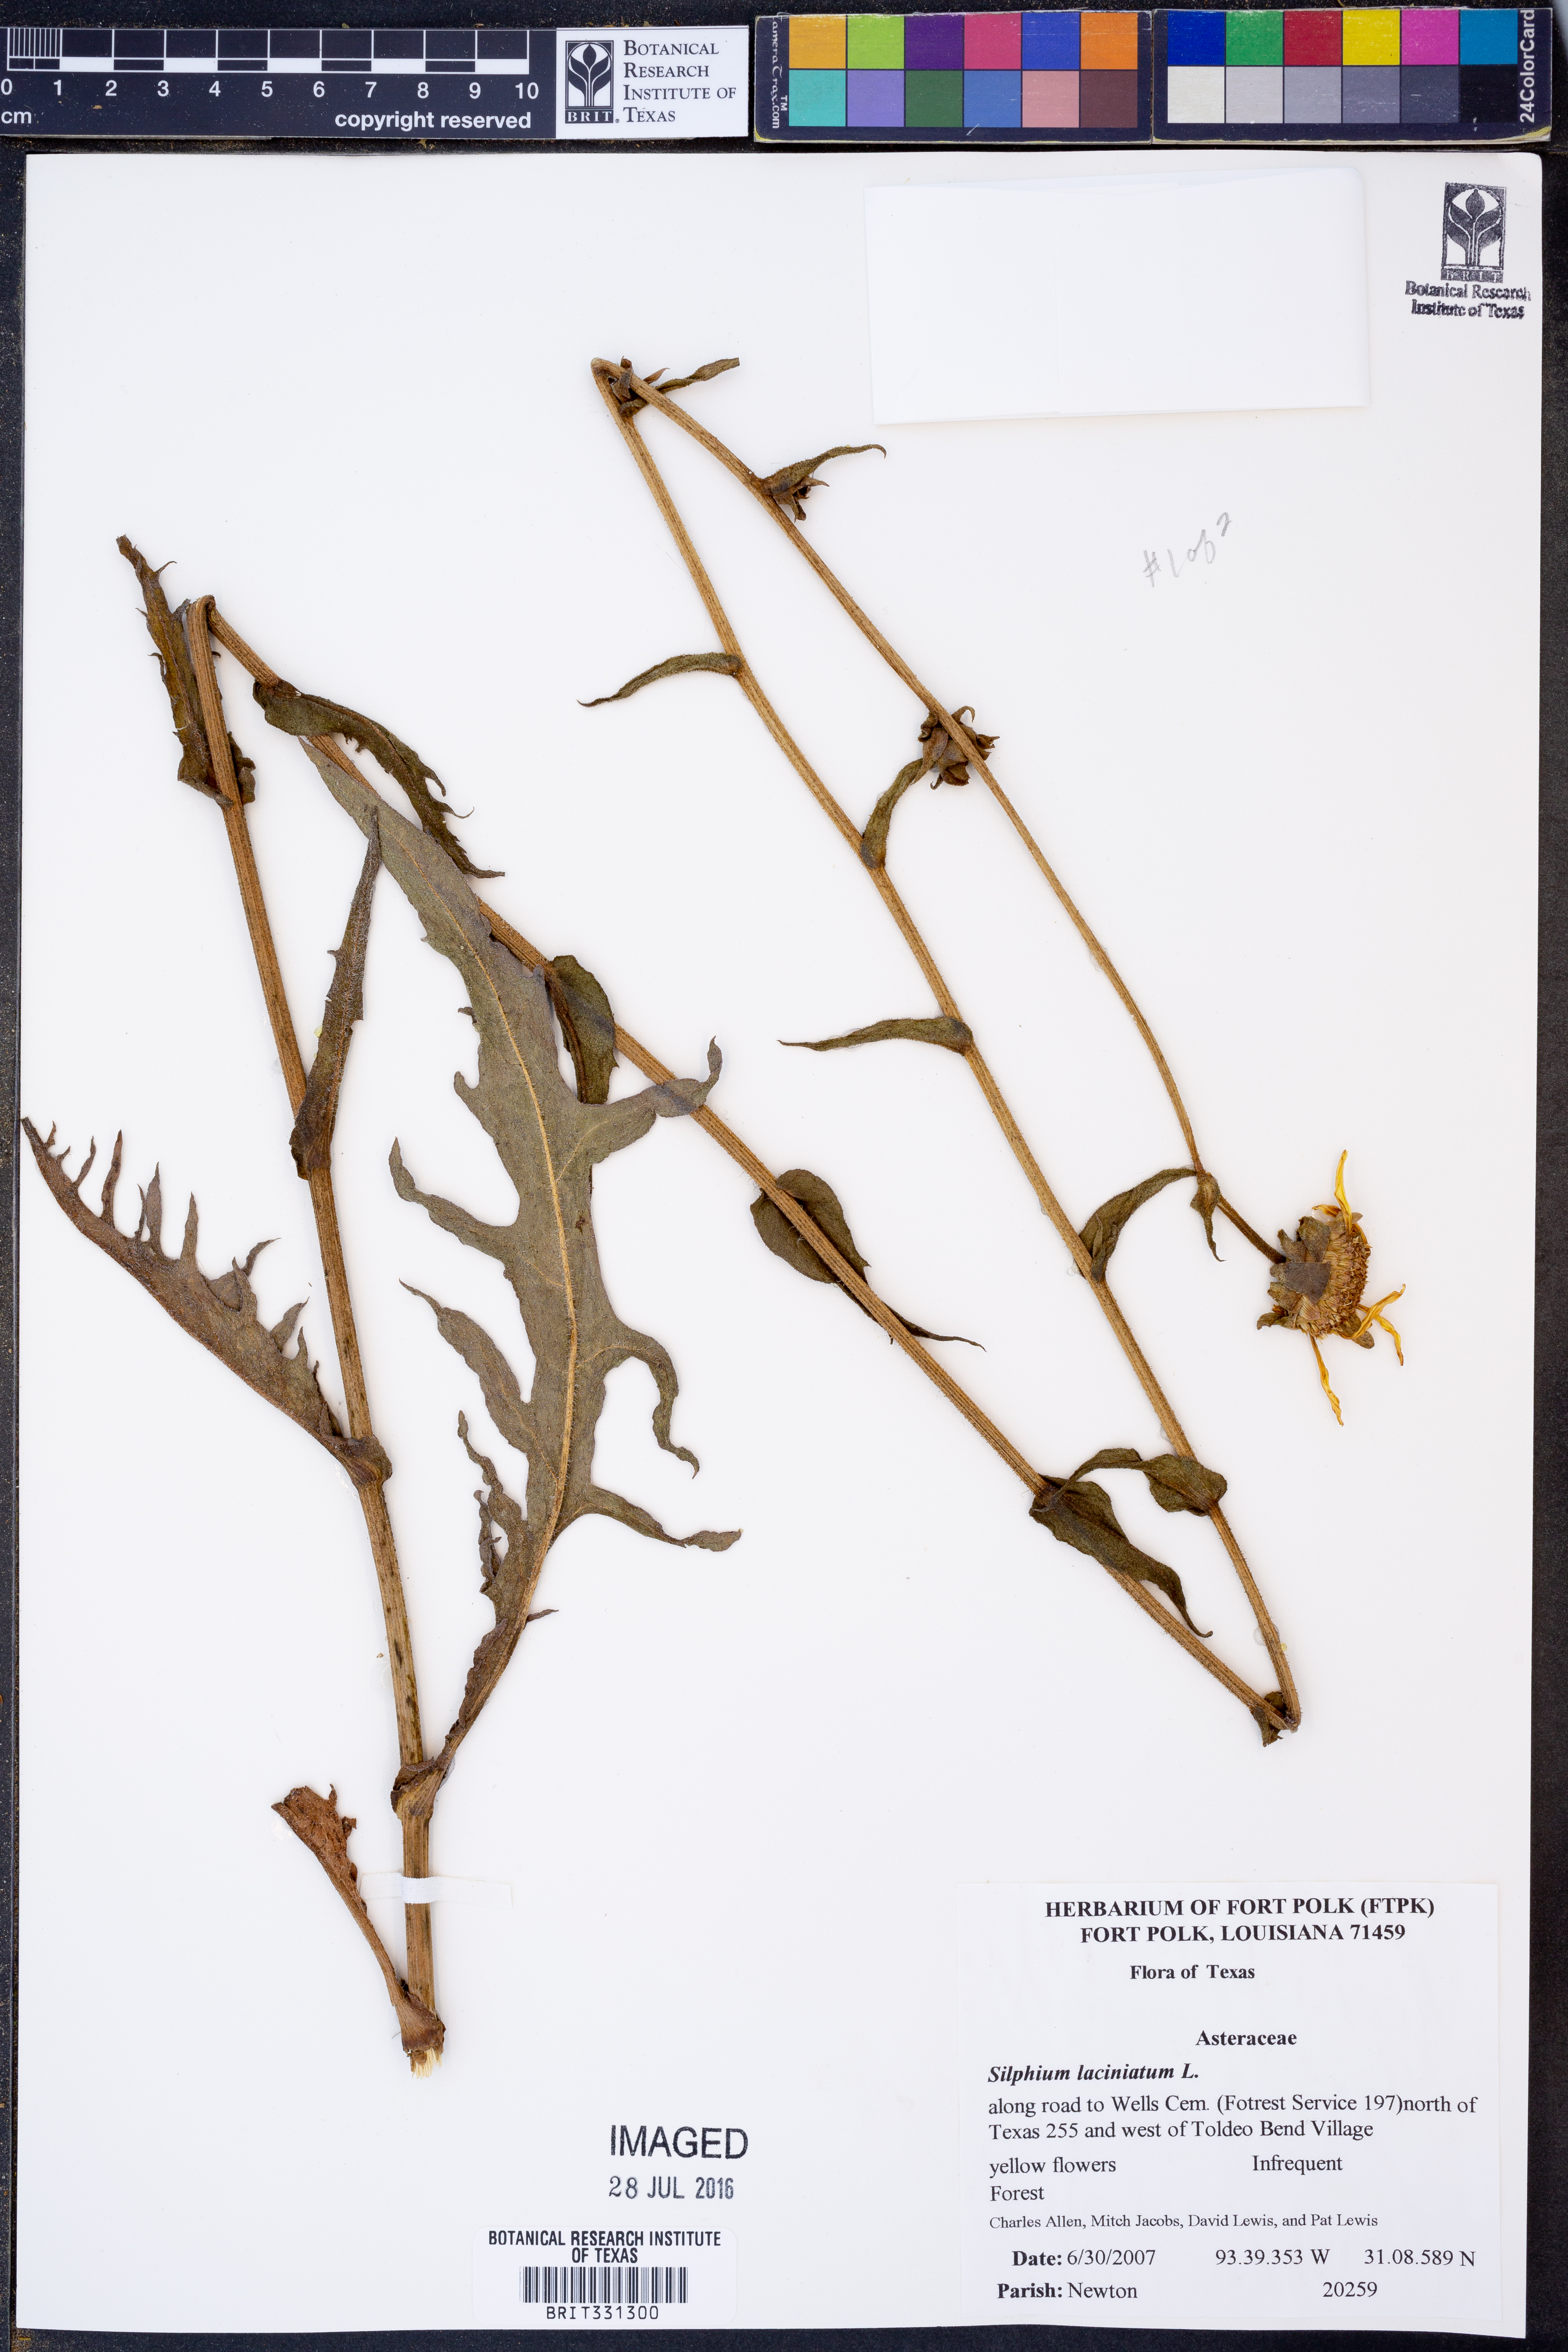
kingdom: Plantae
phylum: Tracheophyta
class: Magnoliopsida
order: Asterales
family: Asteraceae
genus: Silphium
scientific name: Silphium laciniatum
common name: Polarplant
